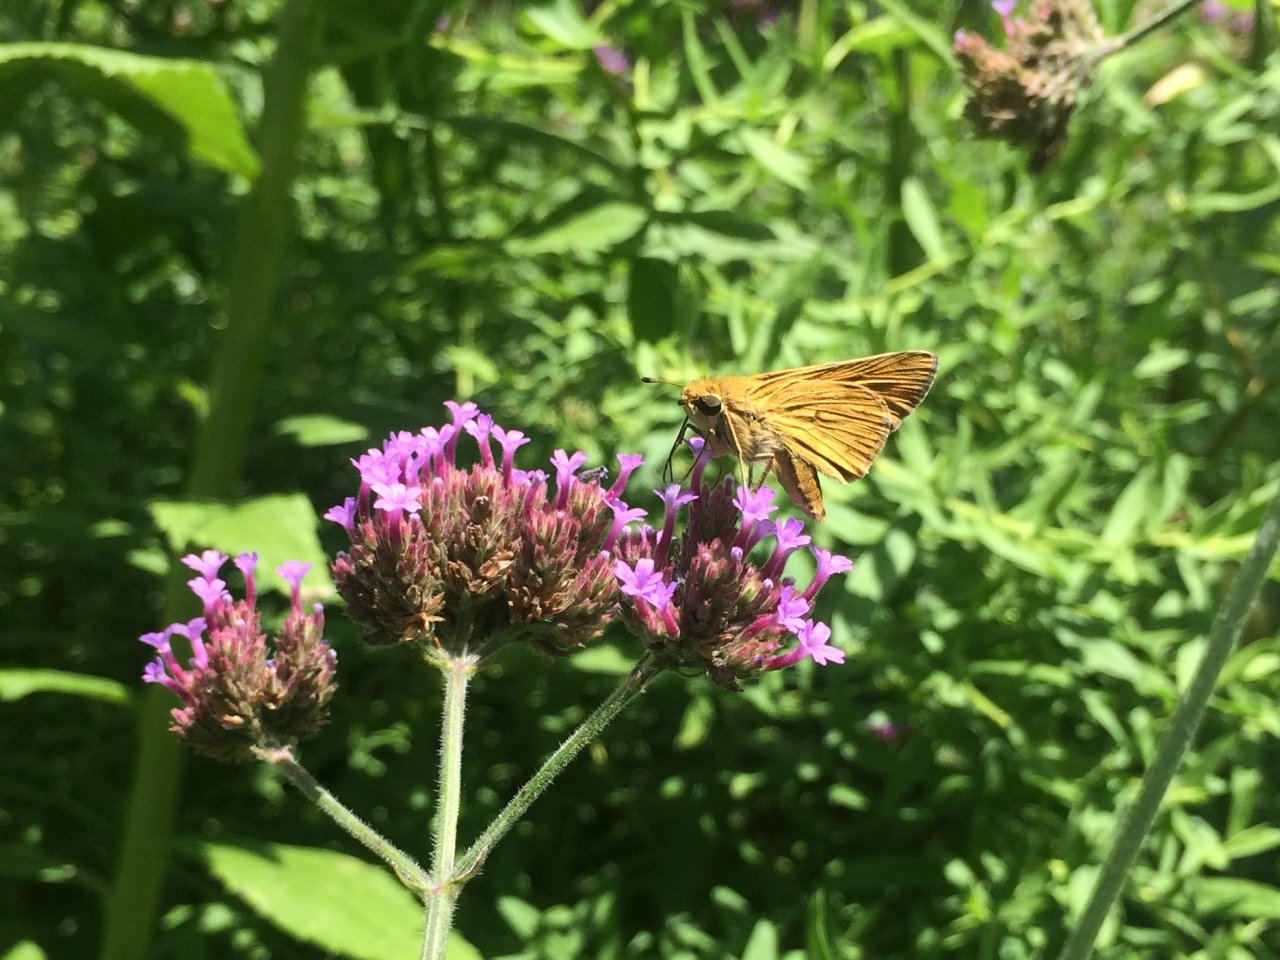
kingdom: Animalia
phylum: Arthropoda
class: Insecta
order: Lepidoptera
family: Hesperiidae
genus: Hylephila
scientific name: Hylephila phyleus
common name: Fiery Skipper
